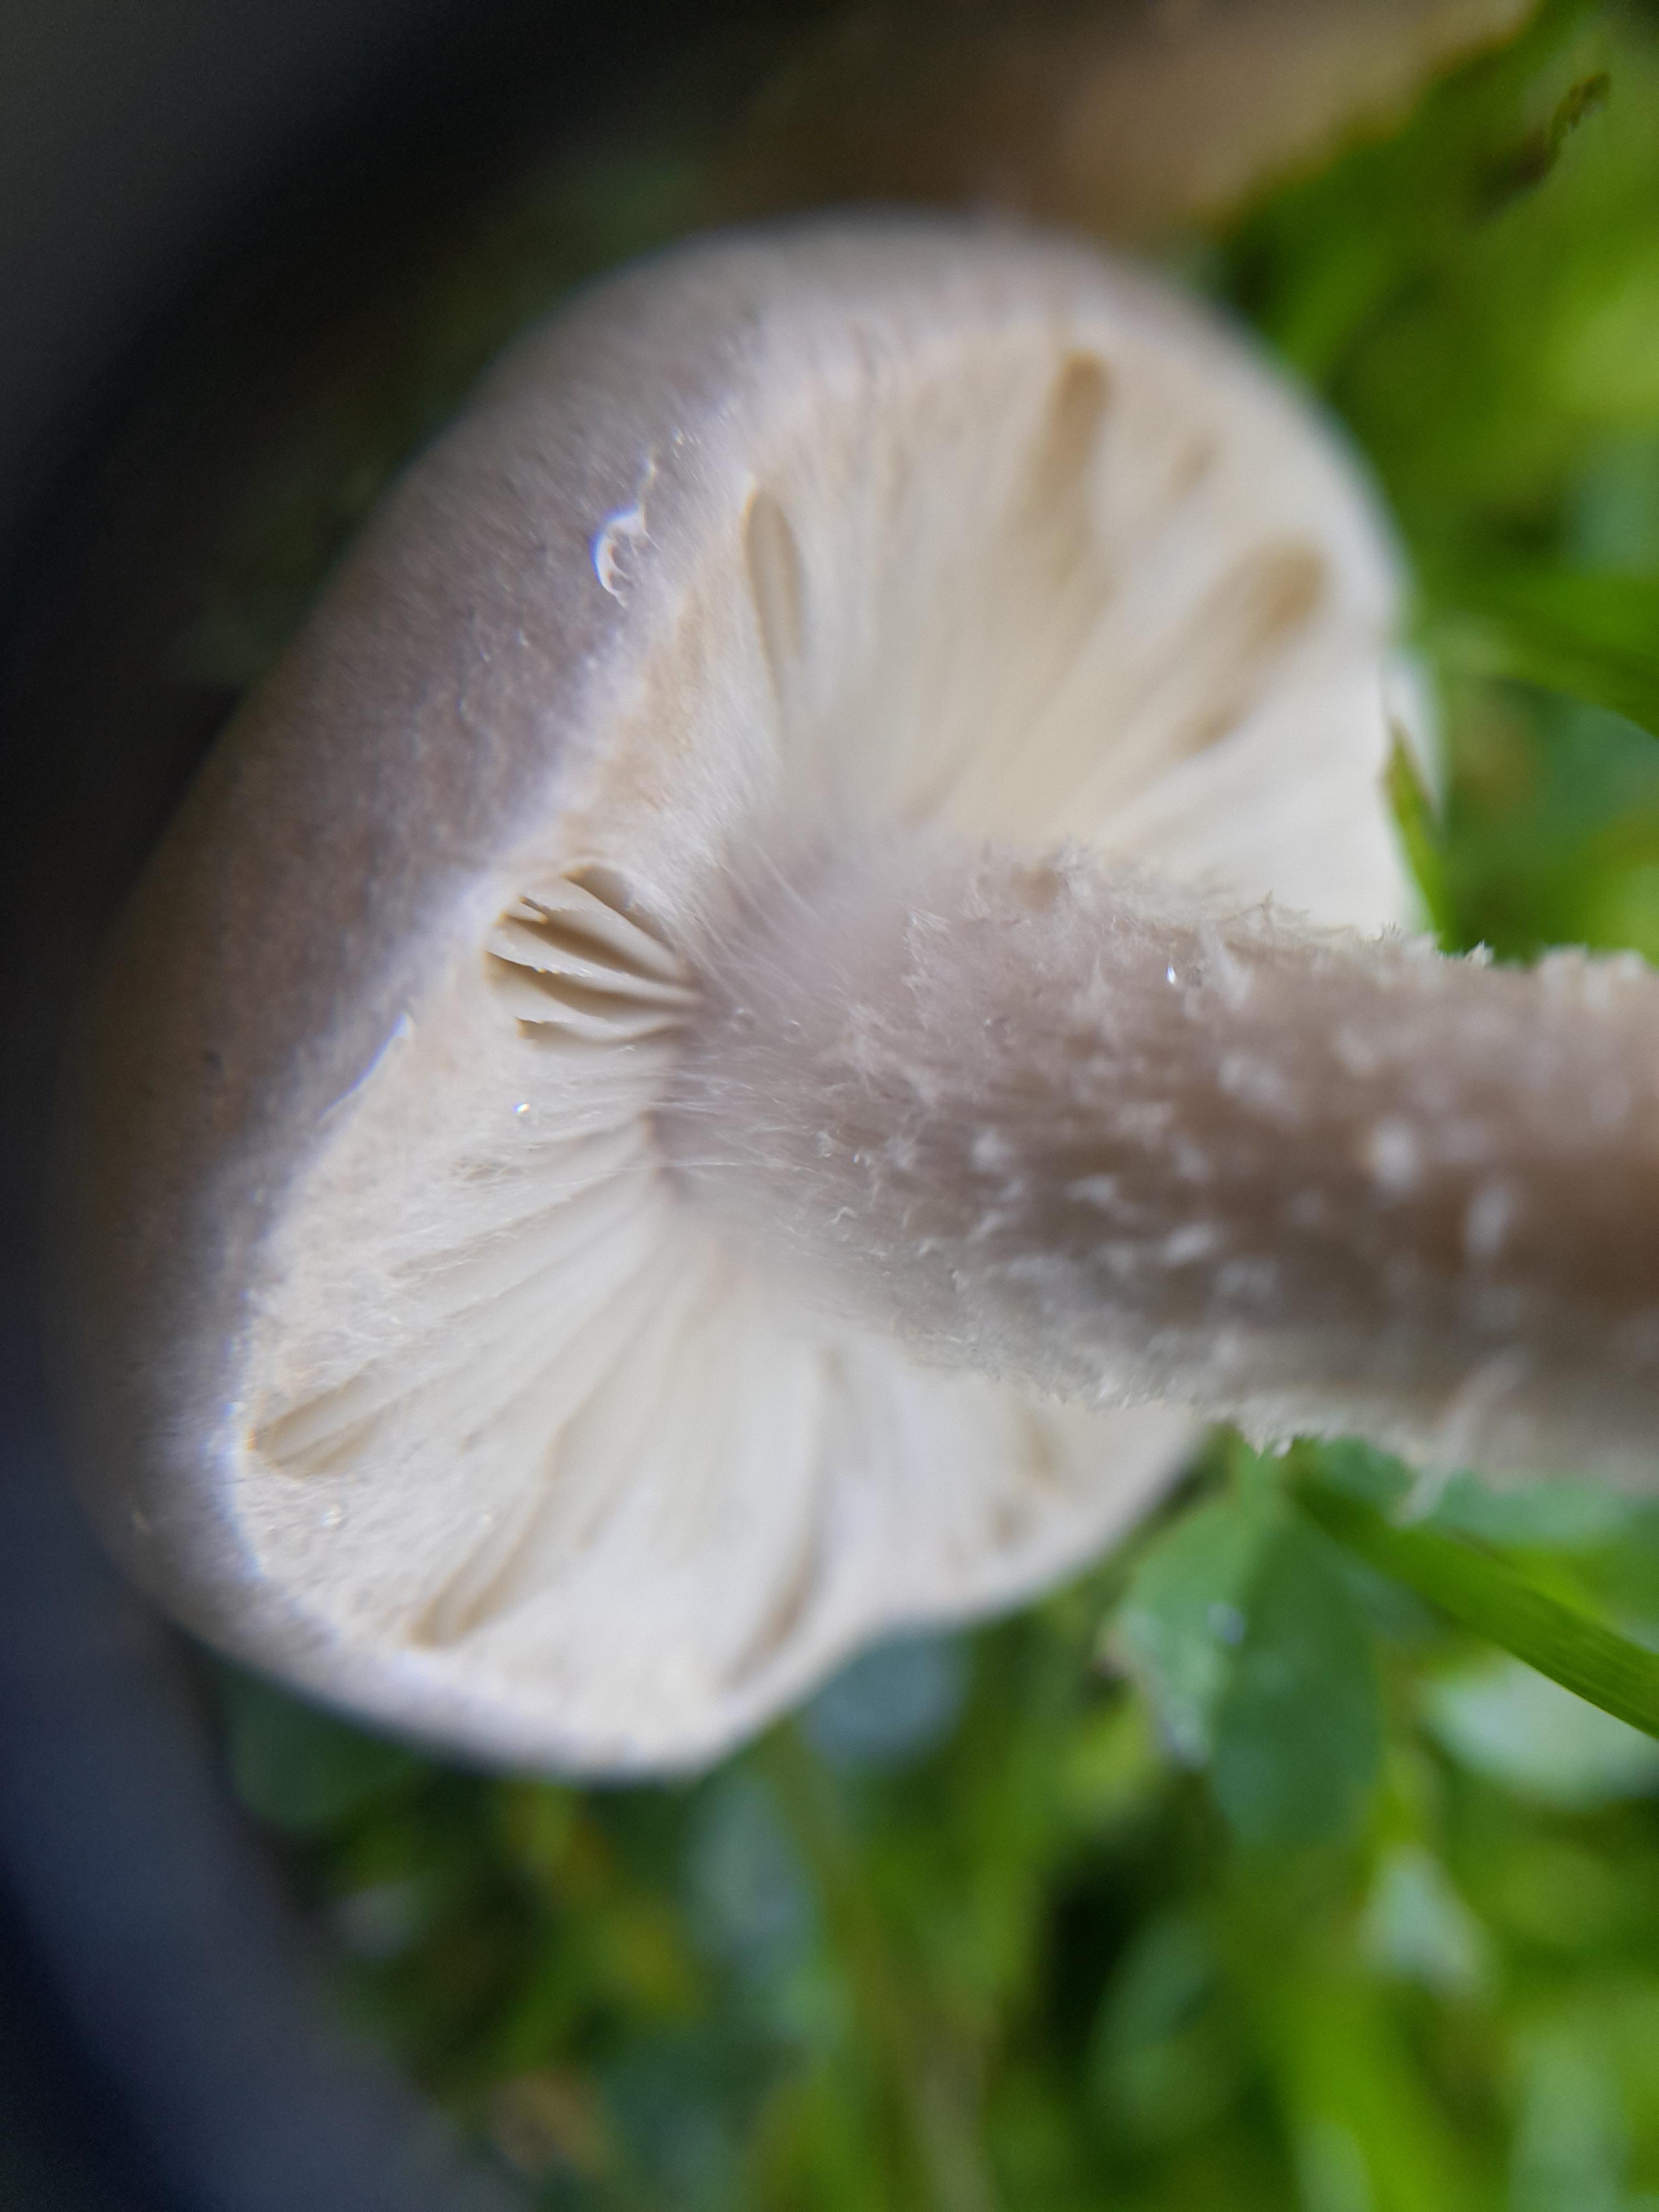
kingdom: Fungi
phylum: Basidiomycota
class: Agaricomycetes
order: Agaricales
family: Strophariaceae
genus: Pholiota
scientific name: Pholiota gummosa
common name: grøngul skælhat
